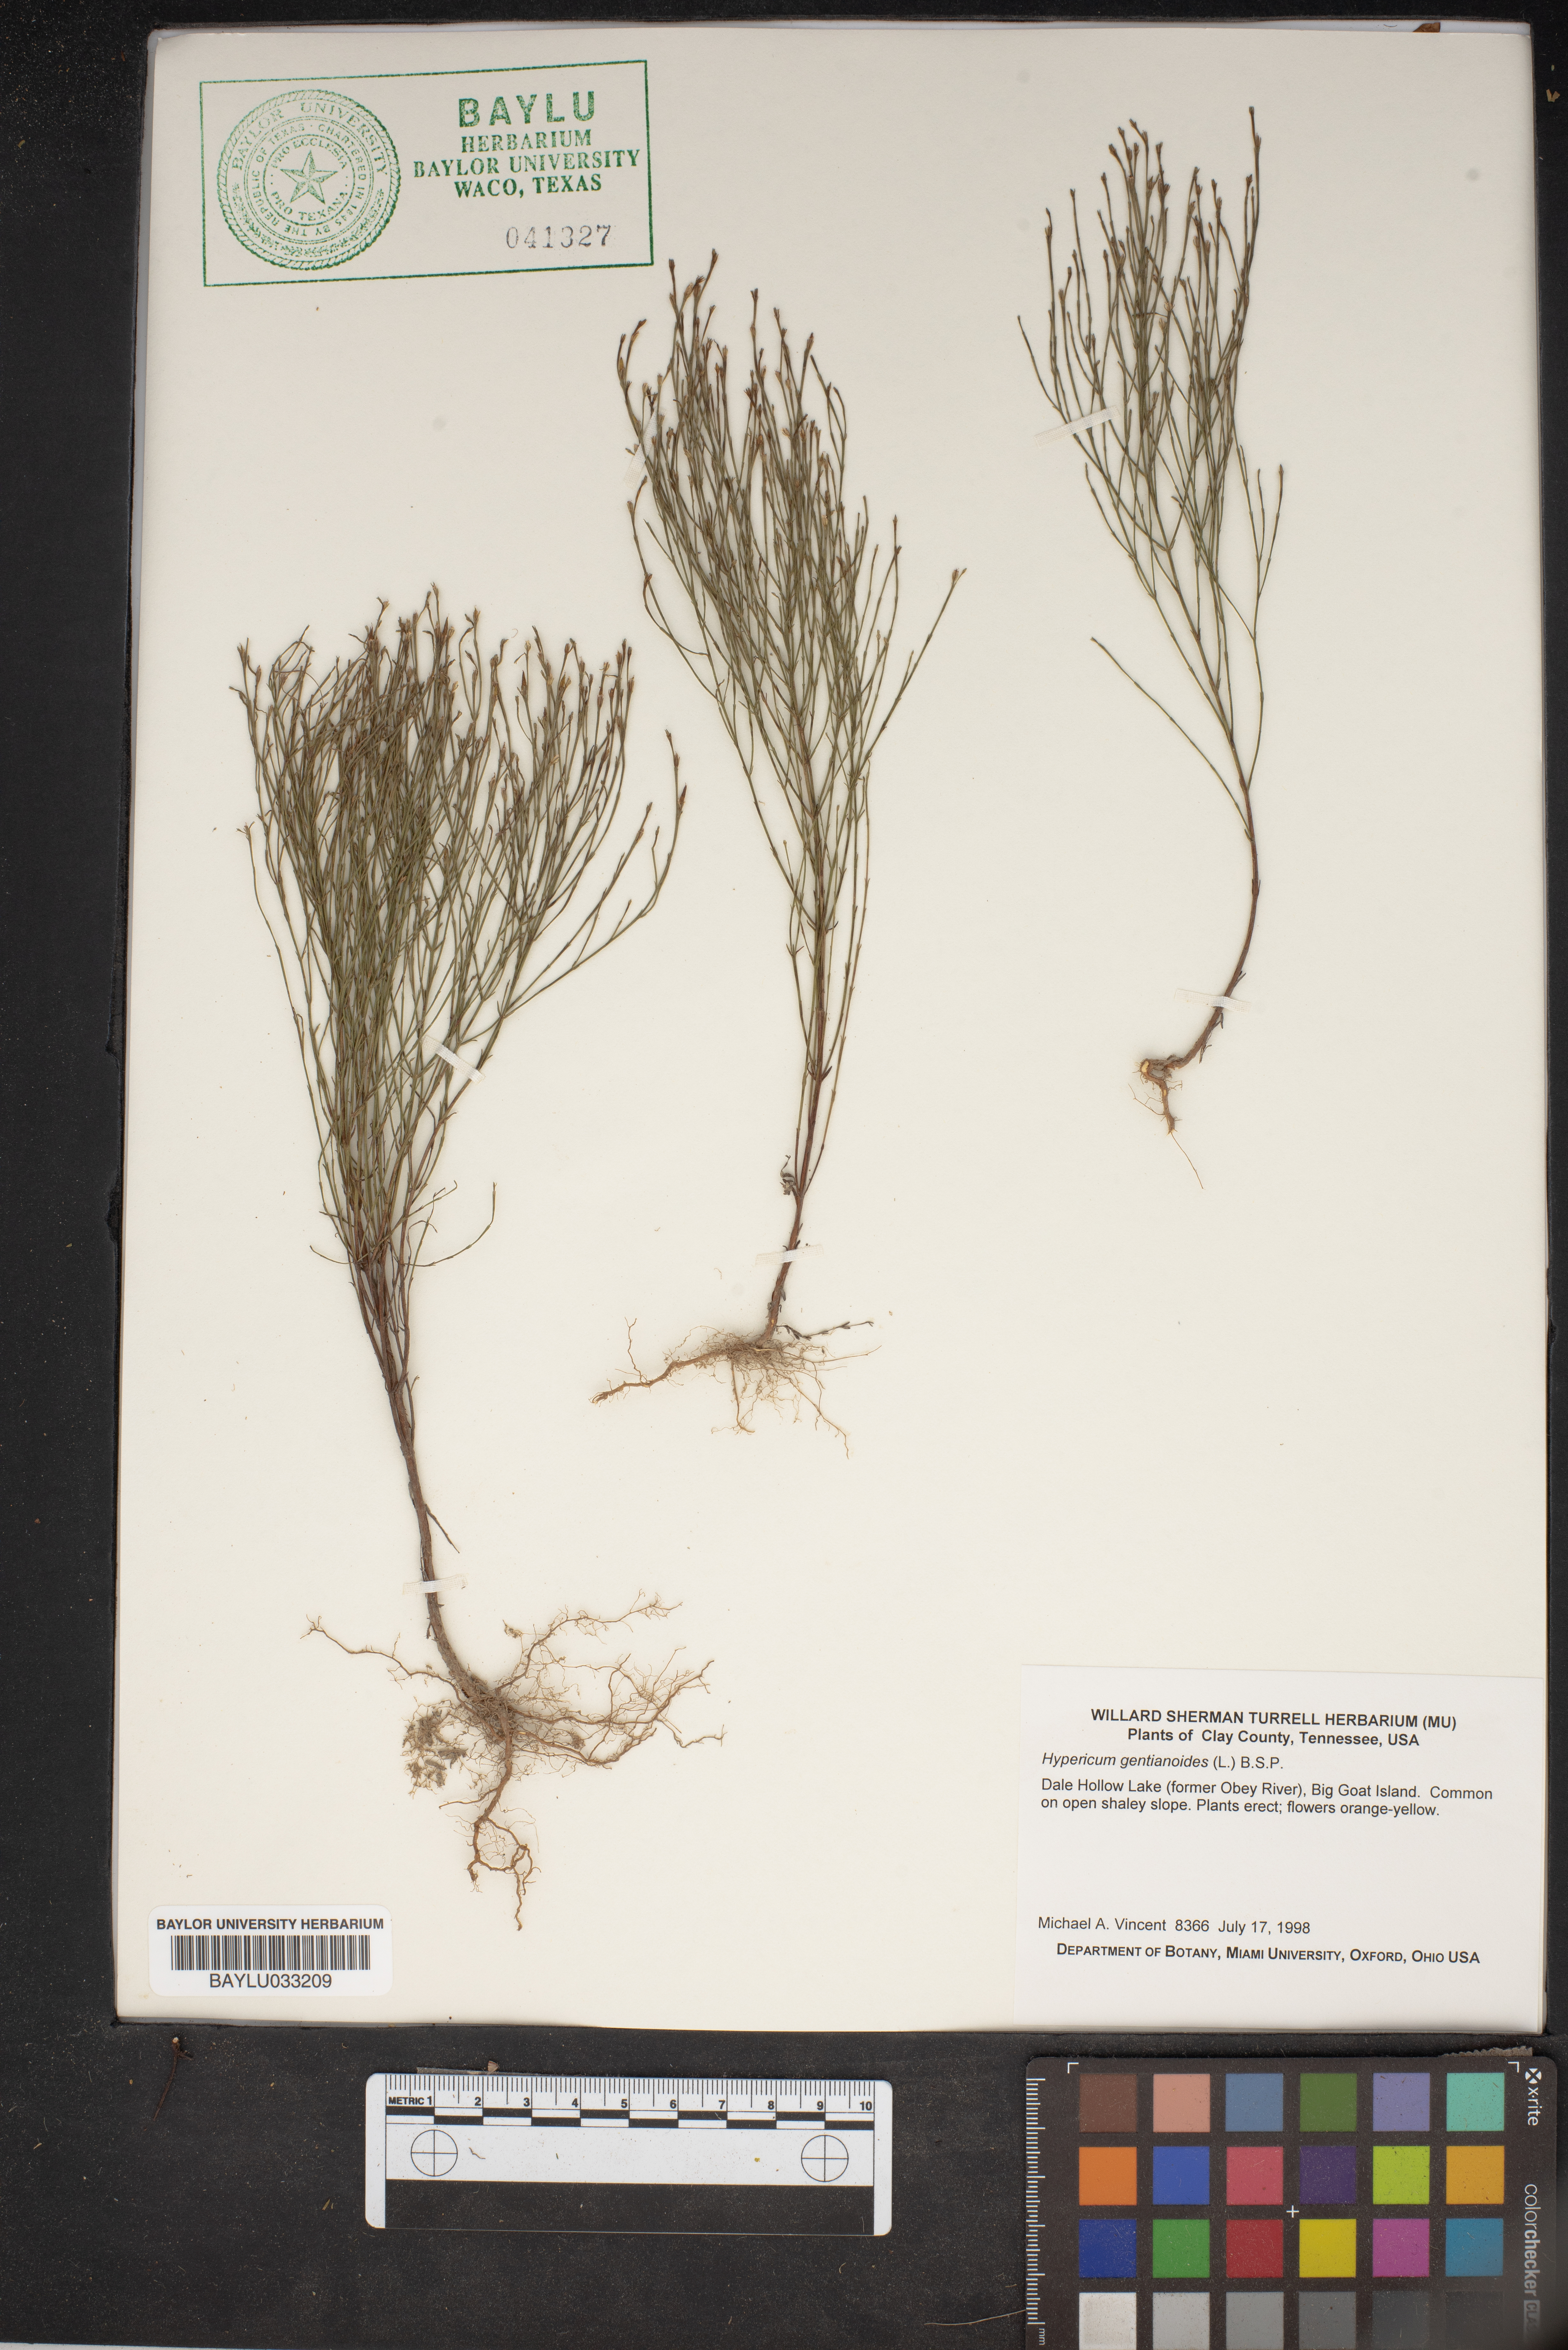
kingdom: Plantae
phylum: Tracheophyta
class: Magnoliopsida
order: Malpighiales
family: Hypericaceae
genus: Hypericum
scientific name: Hypericum gentianoides
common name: Gentian-leaved st. john's-wort
